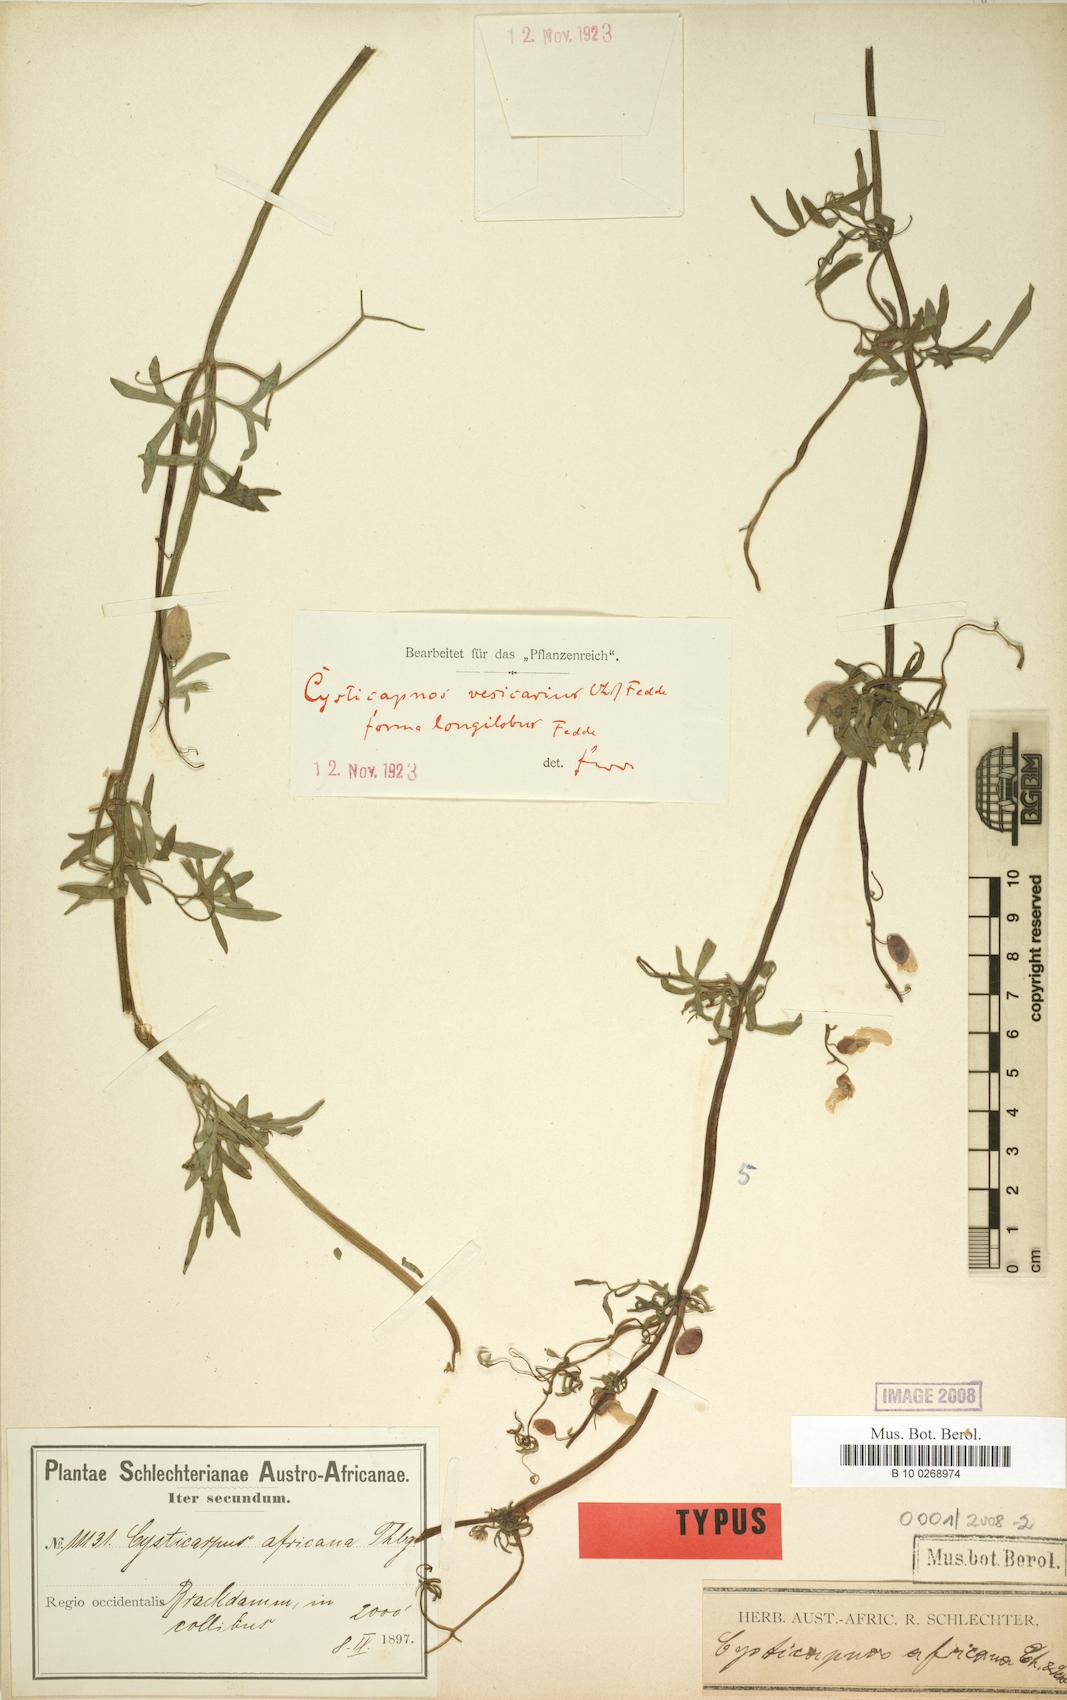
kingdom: Plantae
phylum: Tracheophyta
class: Magnoliopsida
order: Ranunculales
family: Papaveraceae
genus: Cysticapnos
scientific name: Cysticapnos
